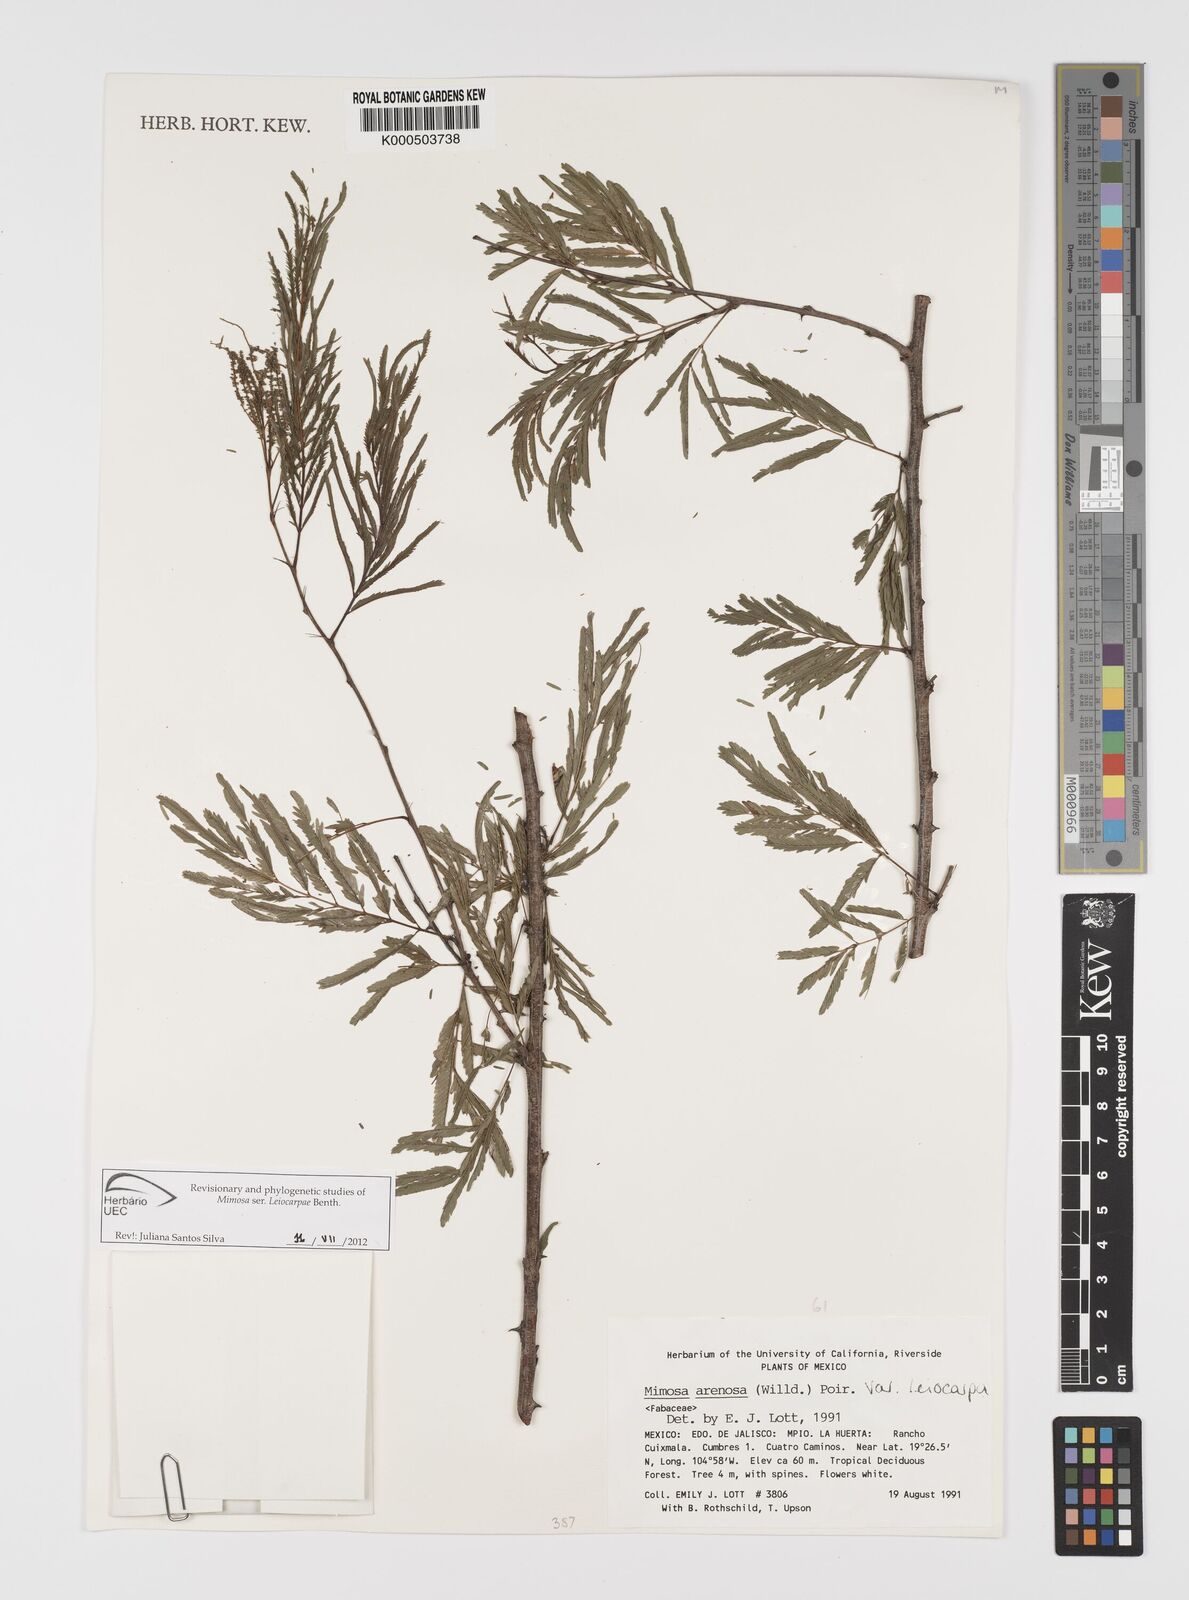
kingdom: Plantae
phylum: Tracheophyta
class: Magnoliopsida
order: Fabales
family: Fabaceae
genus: Mimosa
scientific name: Mimosa arenosa
